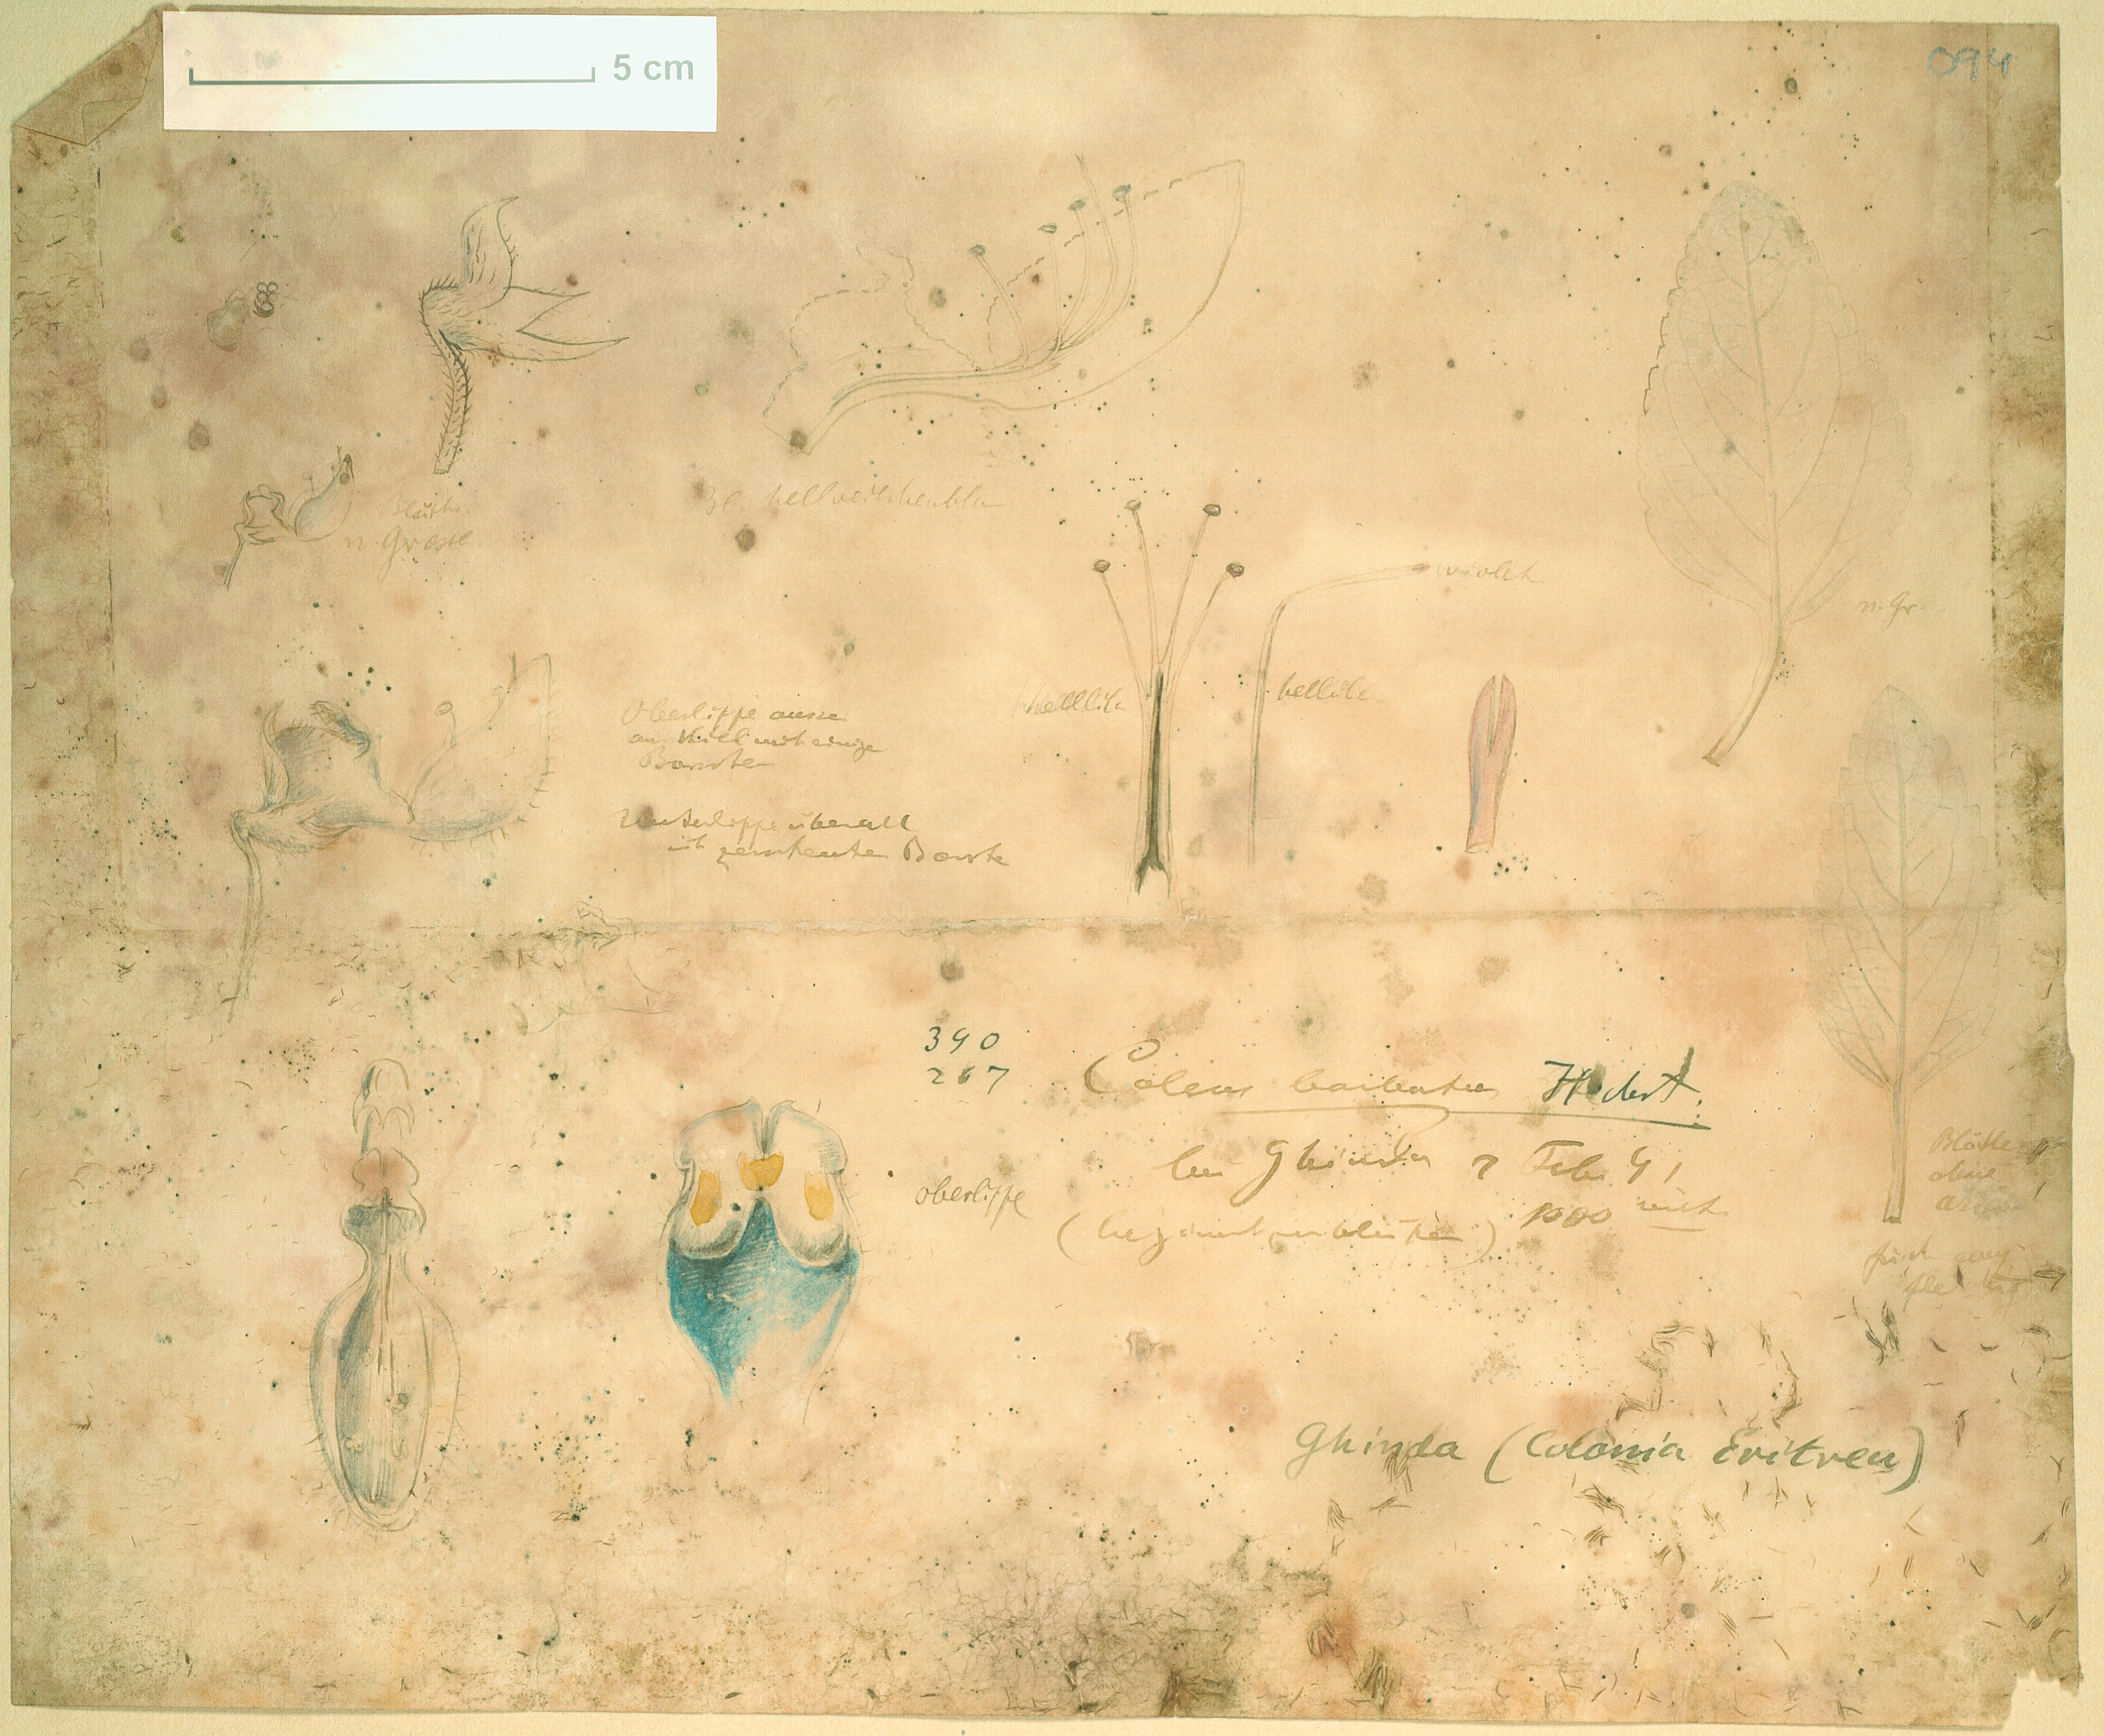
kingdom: Plantae
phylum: Tracheophyta
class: Magnoliopsida
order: Lamiales
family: Lamiaceae
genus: Coleus
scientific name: Coleus barbatus
